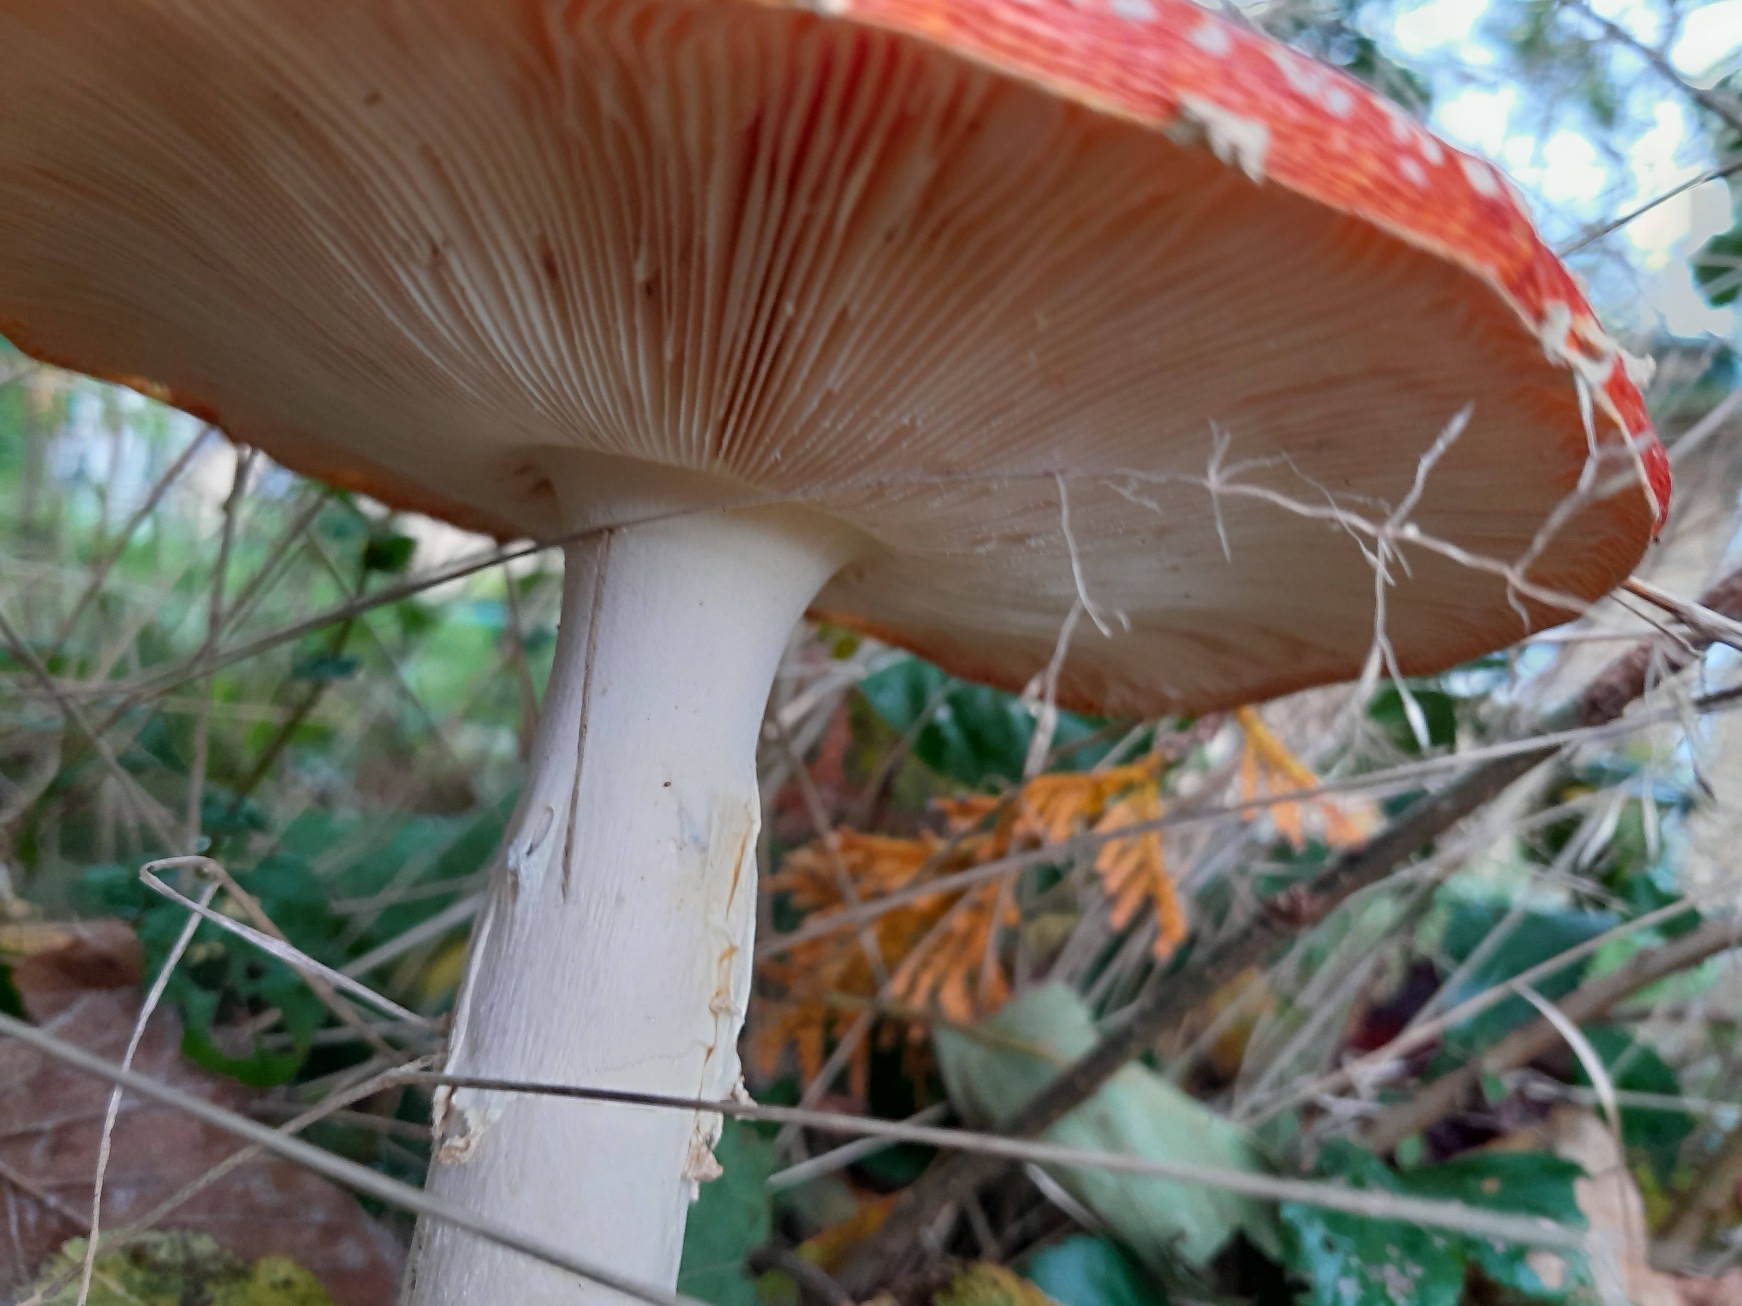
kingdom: Fungi
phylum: Basidiomycota
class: Agaricomycetes
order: Agaricales
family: Amanitaceae
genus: Amanita
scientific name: Amanita muscaria
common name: Rød fluesvamp
